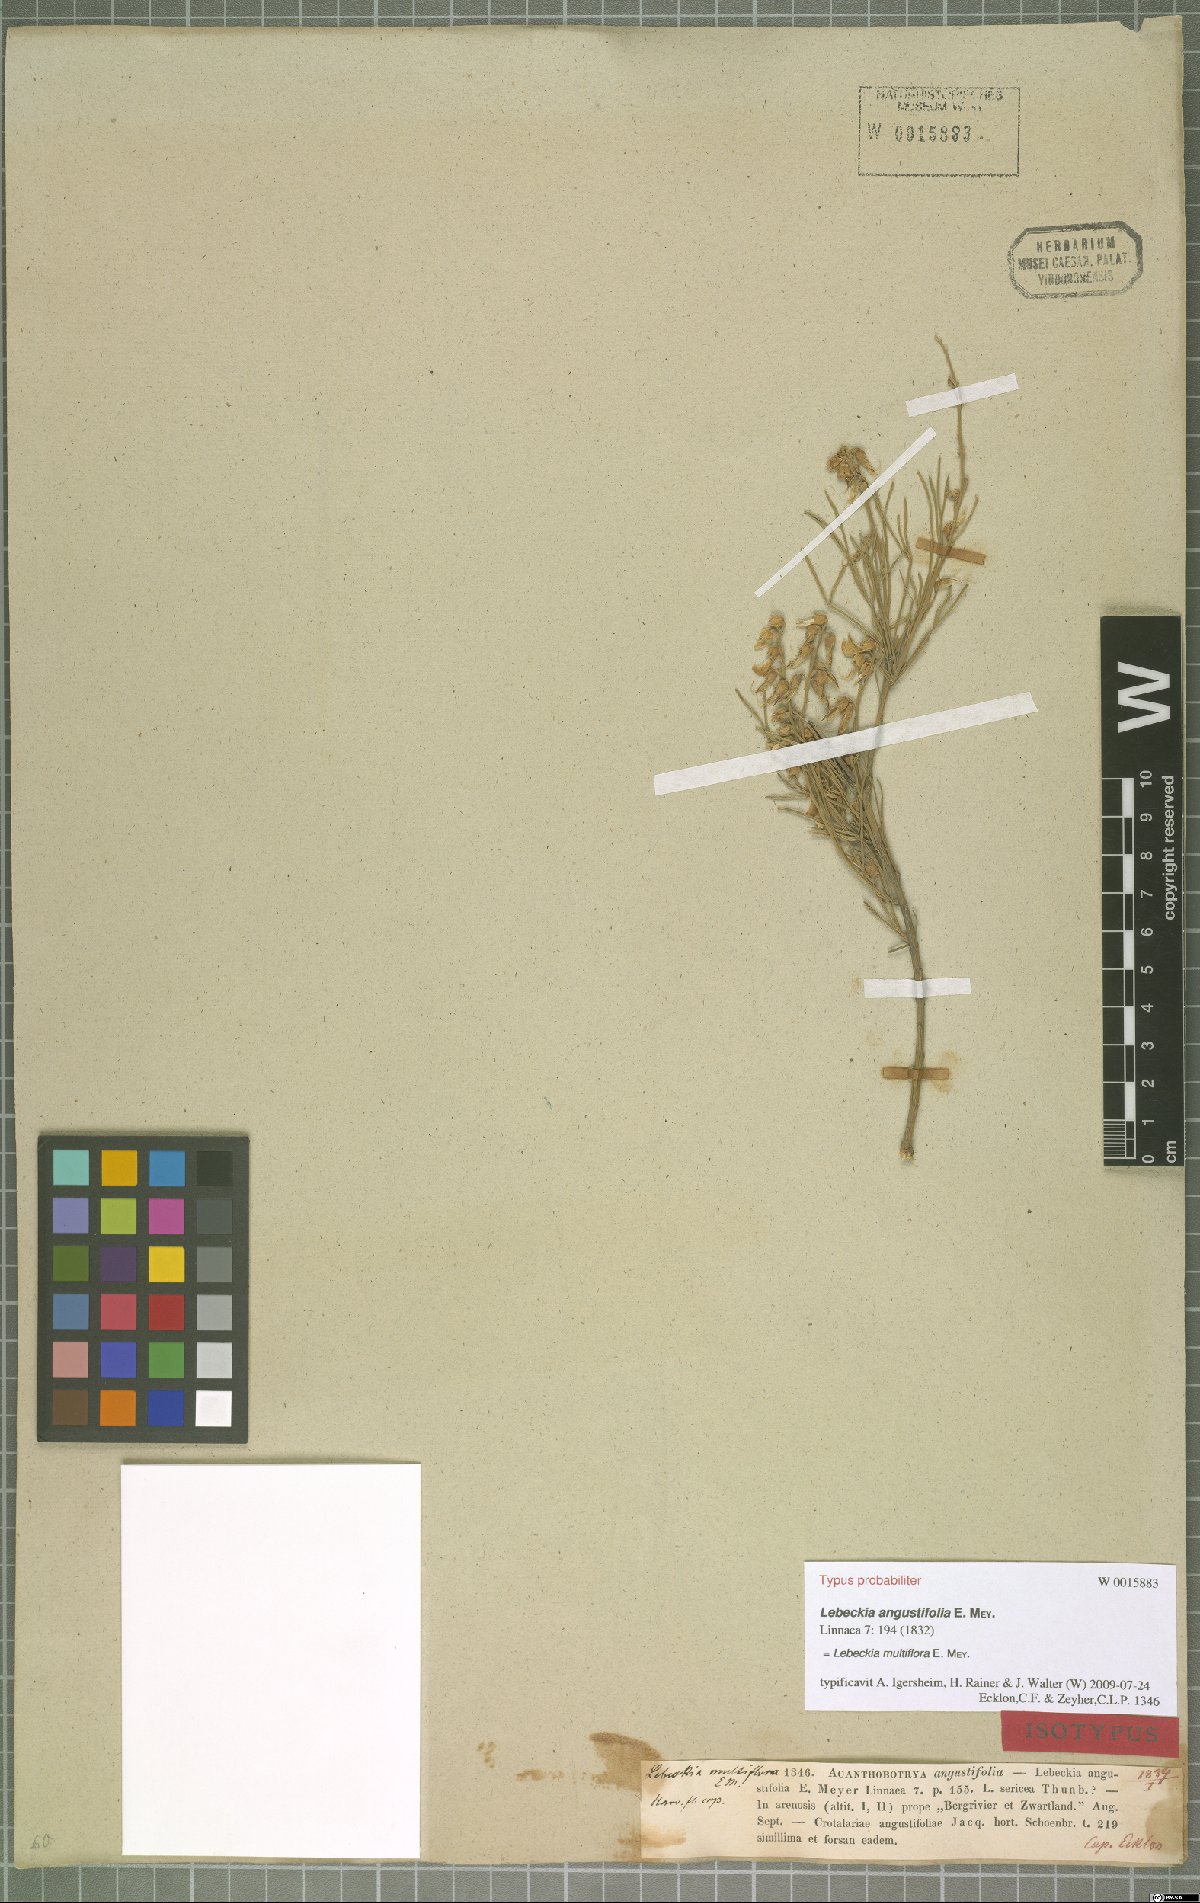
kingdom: Plantae
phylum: Tracheophyta
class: Magnoliopsida
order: Fabales
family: Fabaceae
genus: Calobota
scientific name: Calobota angustifolia
